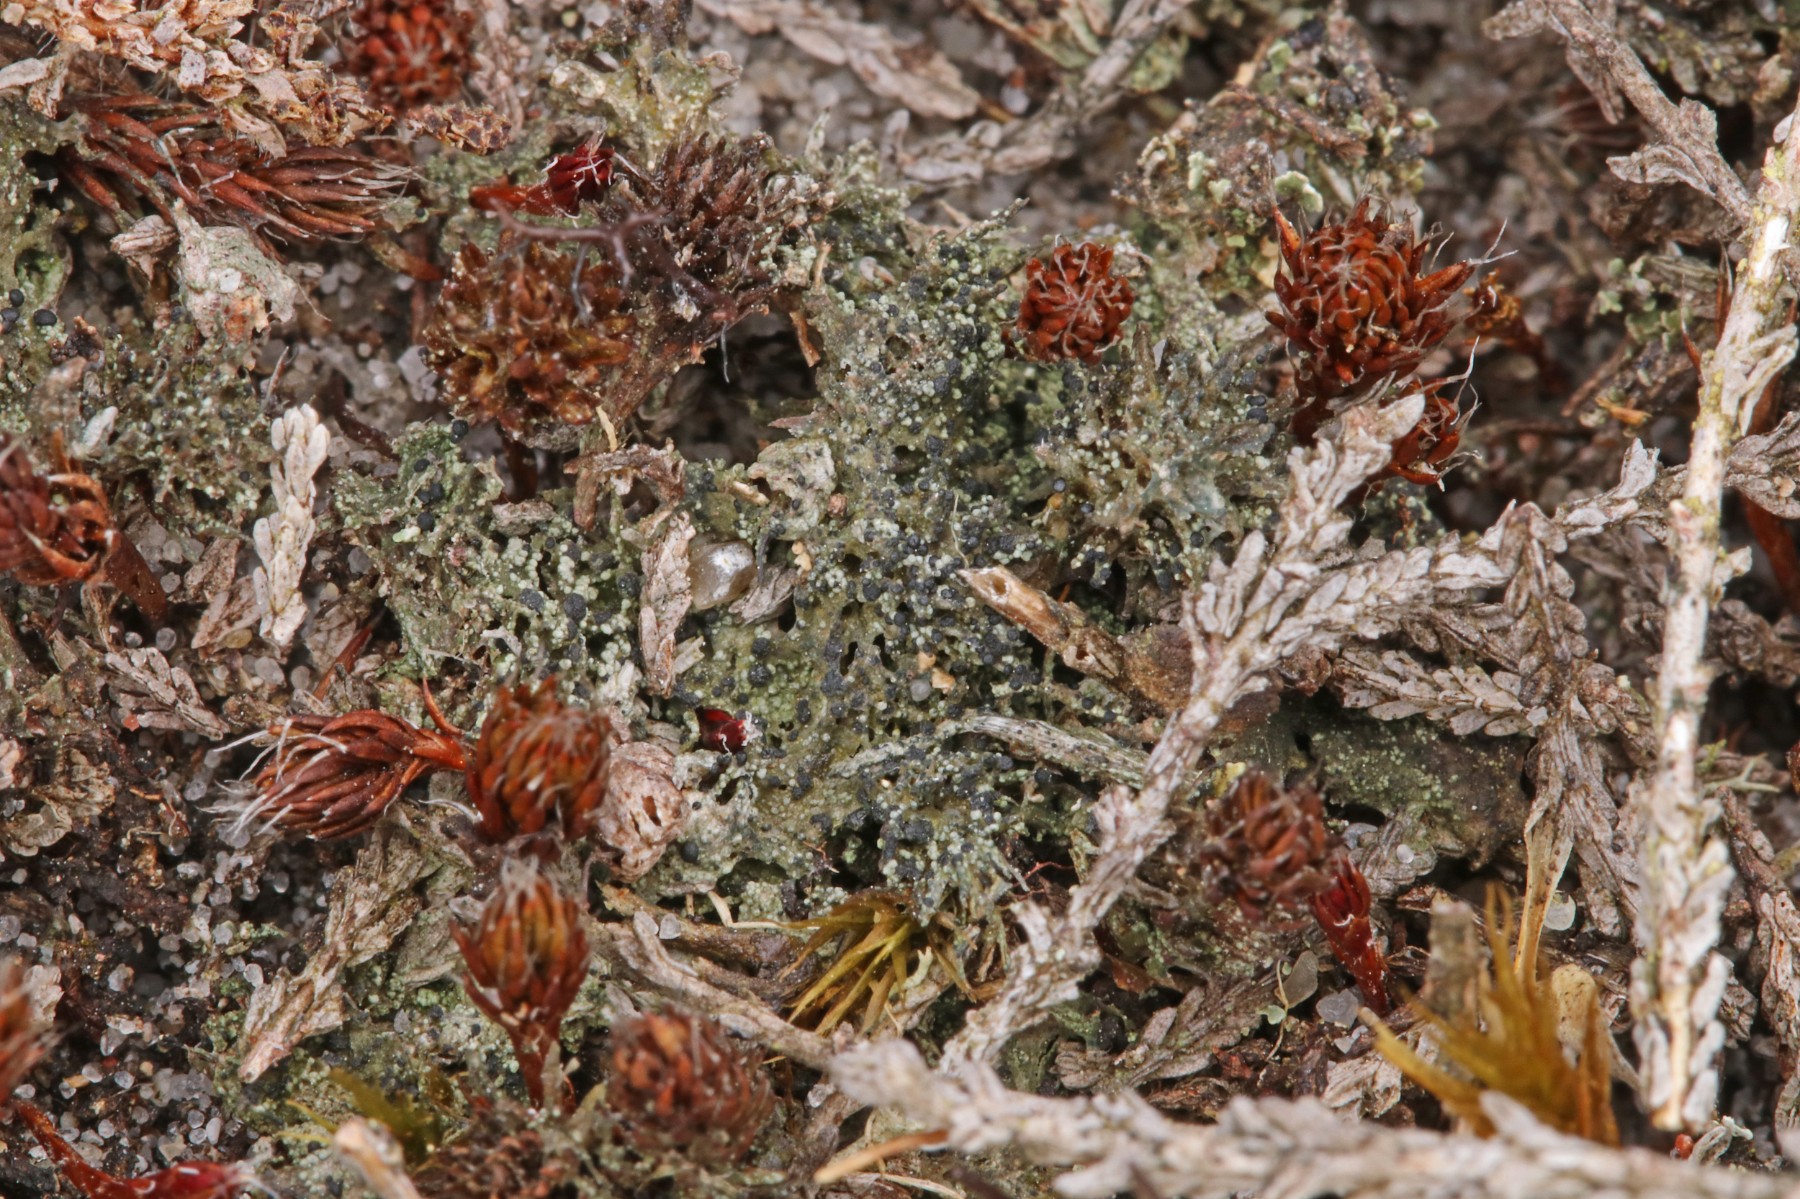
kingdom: Fungi
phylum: Ascomycota
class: Lecanoromycetes
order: Lecanorales
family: Byssolomataceae
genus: Micarea
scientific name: Micarea lignaria
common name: tørve-knaplav
